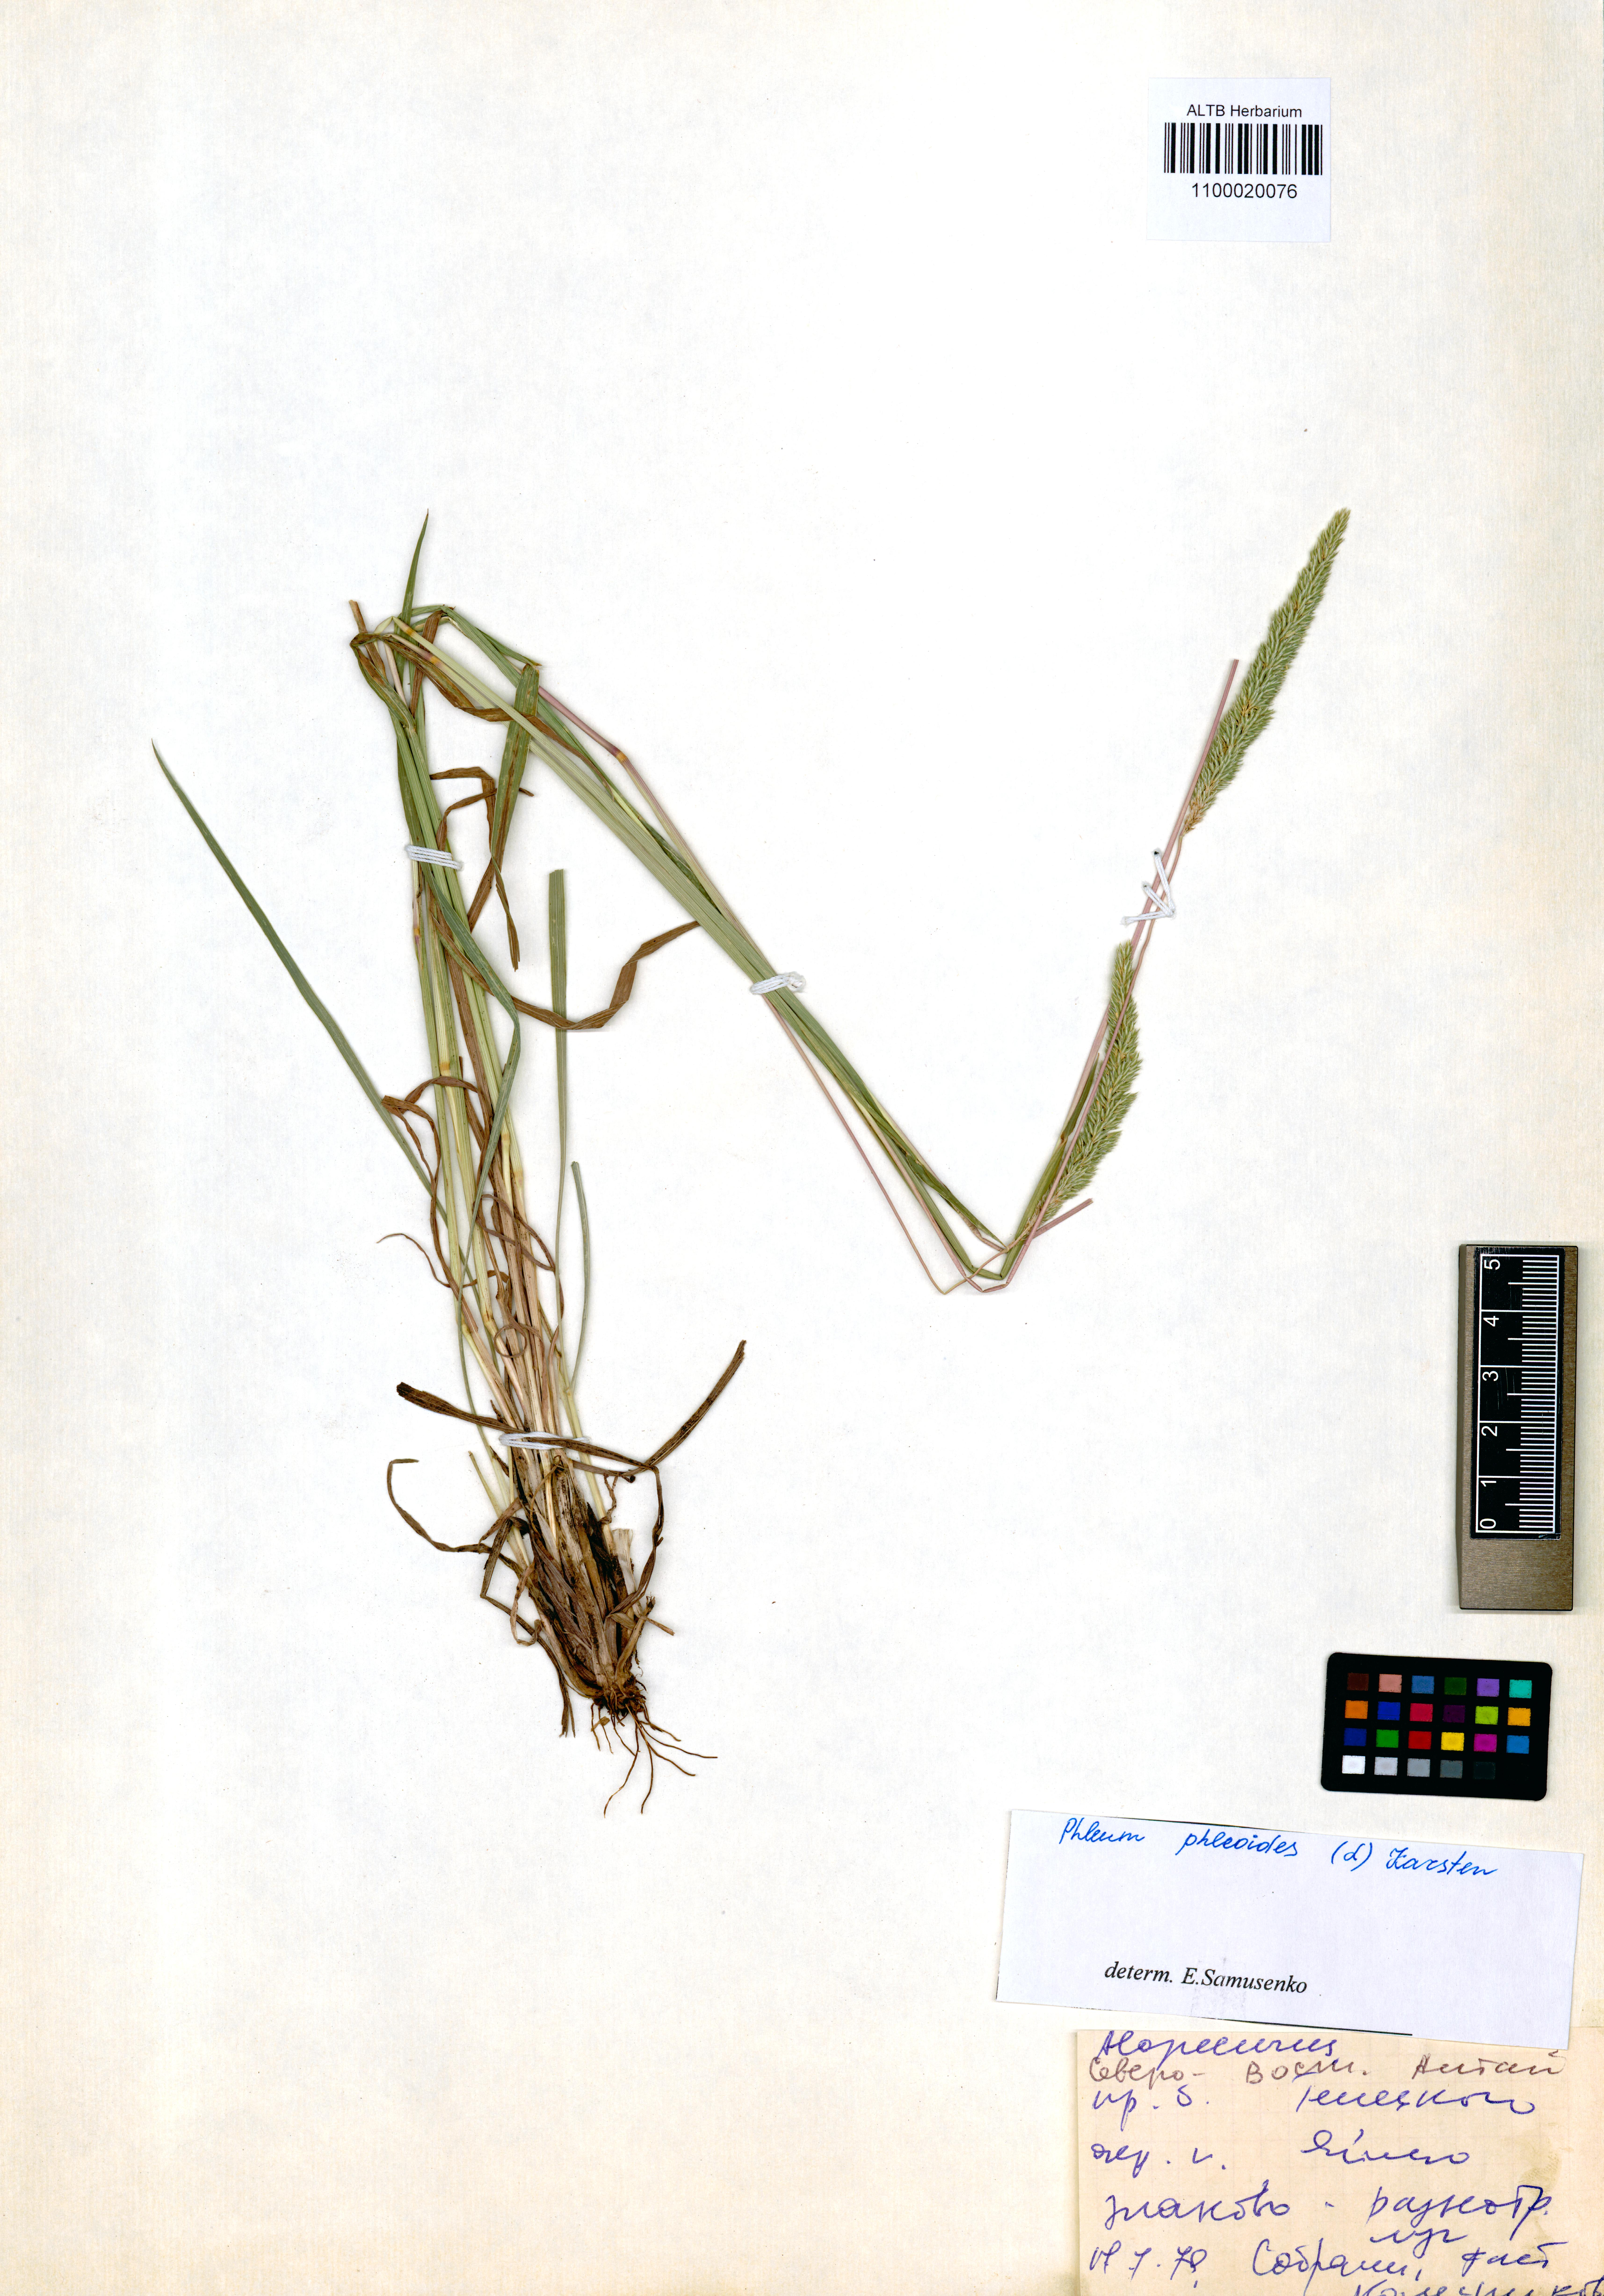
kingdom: Plantae
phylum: Tracheophyta
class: Liliopsida
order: Poales
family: Poaceae
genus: Phleum
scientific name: Phleum phleoides
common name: Purple-stem cat's-tail
